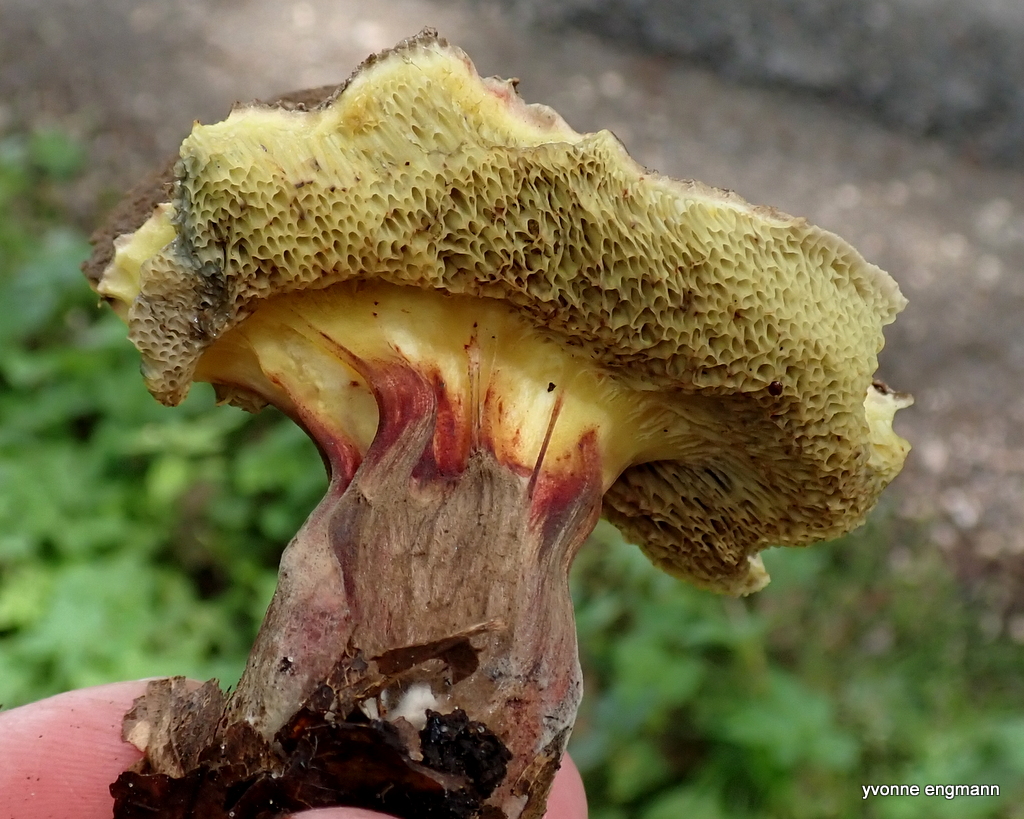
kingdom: Fungi
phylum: Basidiomycota
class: Agaricomycetes
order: Boletales
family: Boletaceae
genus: Xerocomellus
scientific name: Xerocomellus
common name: dværgrørhat
